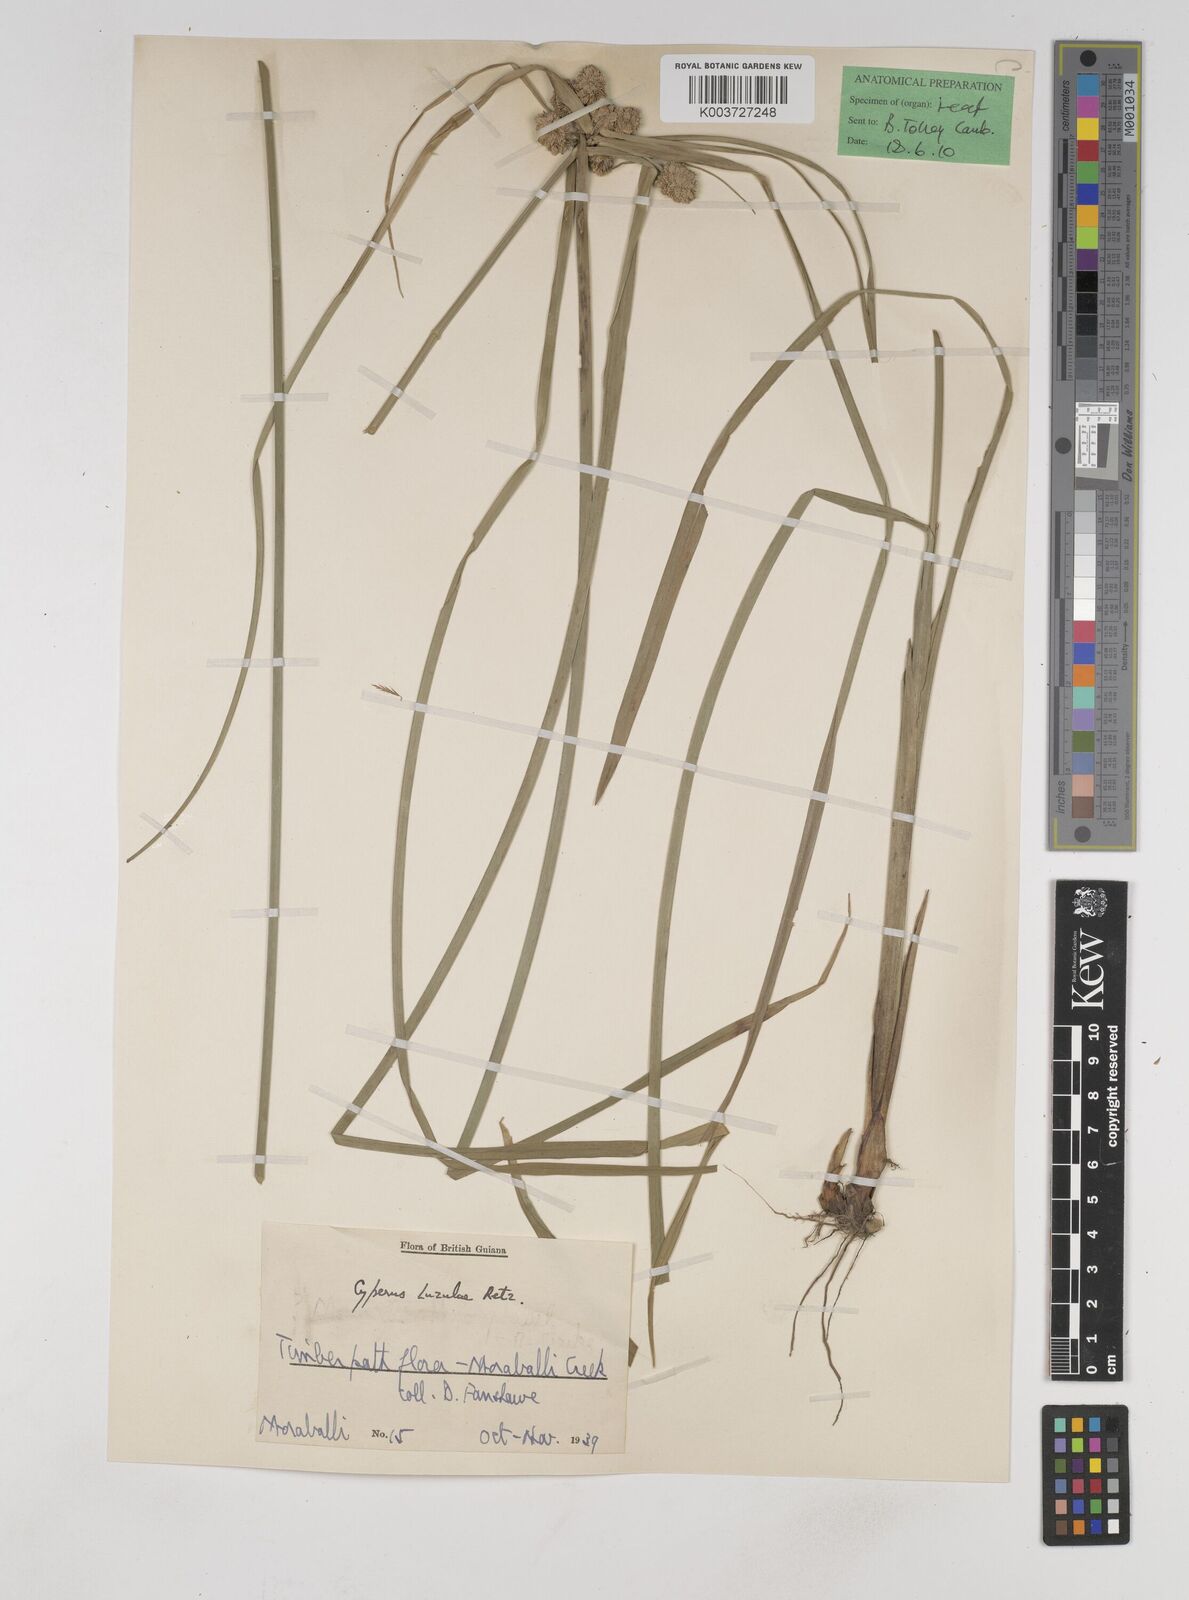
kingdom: Plantae
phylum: Tracheophyta
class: Liliopsida
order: Poales
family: Cyperaceae
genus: Cyperus
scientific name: Cyperus luzulae
